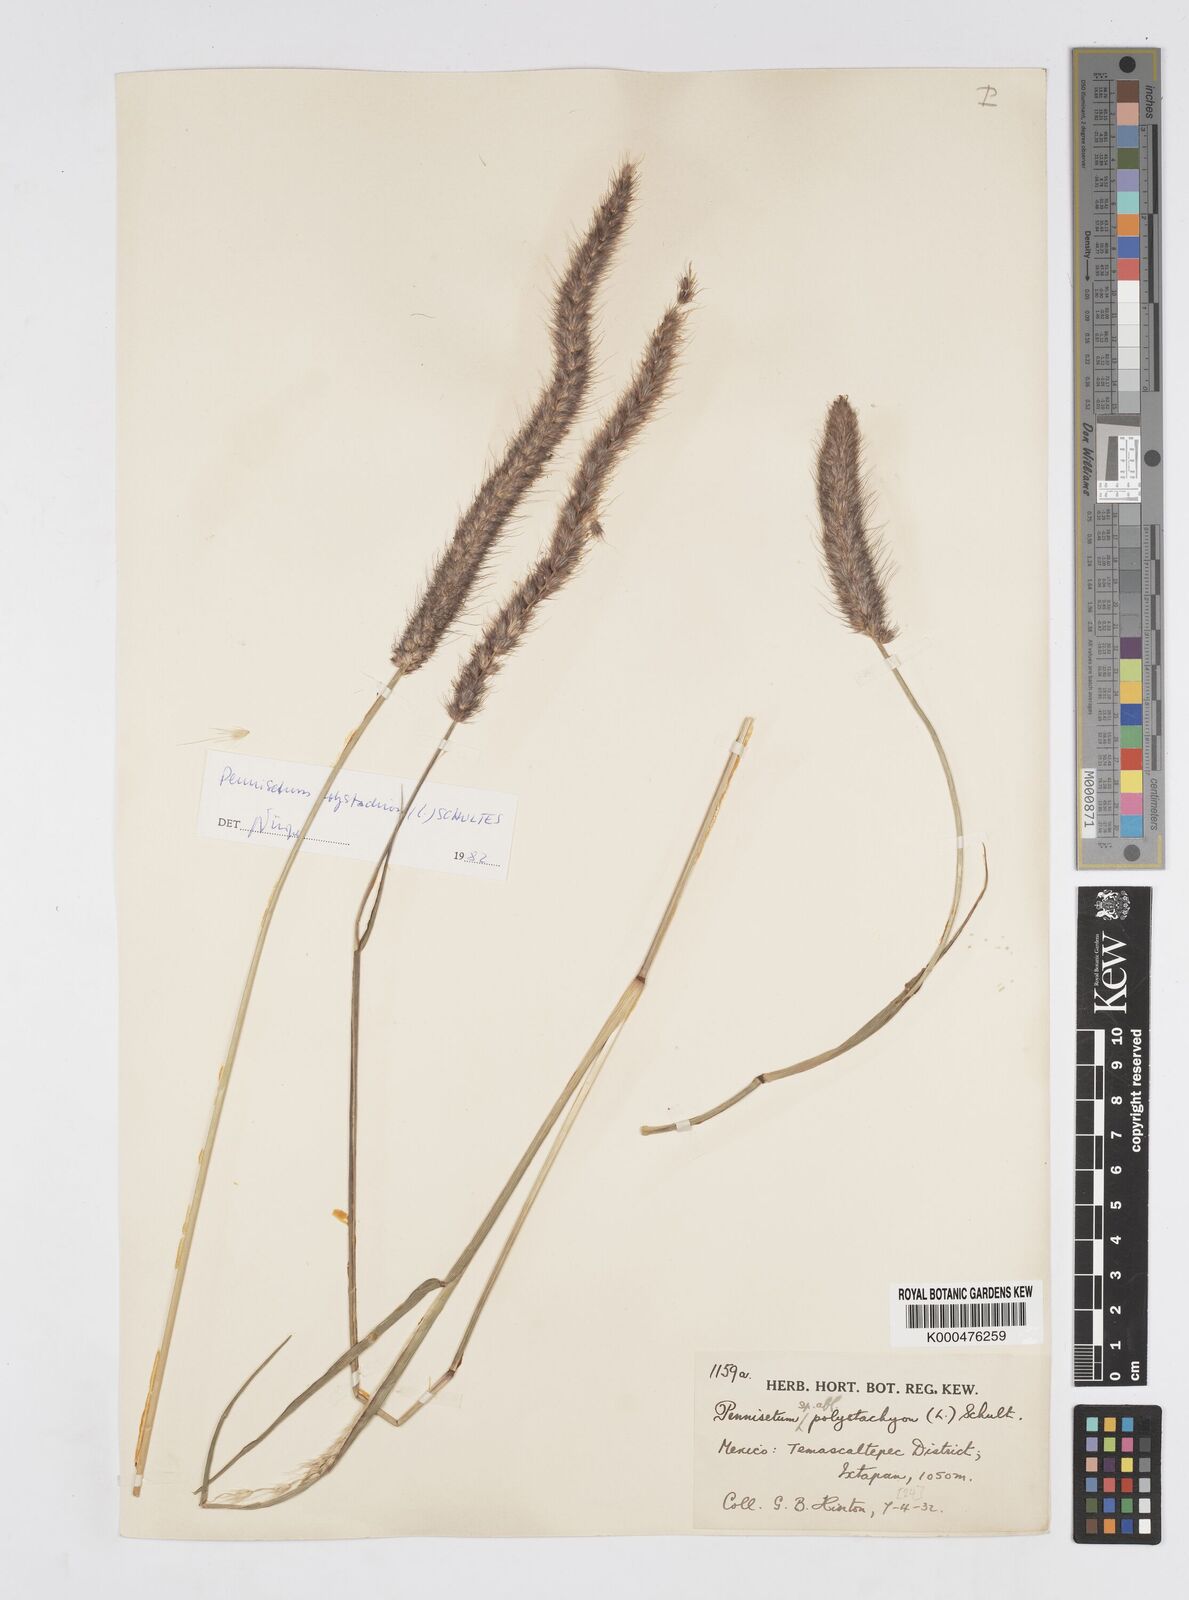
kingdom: Plantae
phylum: Tracheophyta
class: Liliopsida
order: Poales
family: Poaceae
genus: Setaria
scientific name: Setaria parviflora
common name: Knotroot bristle-grass
